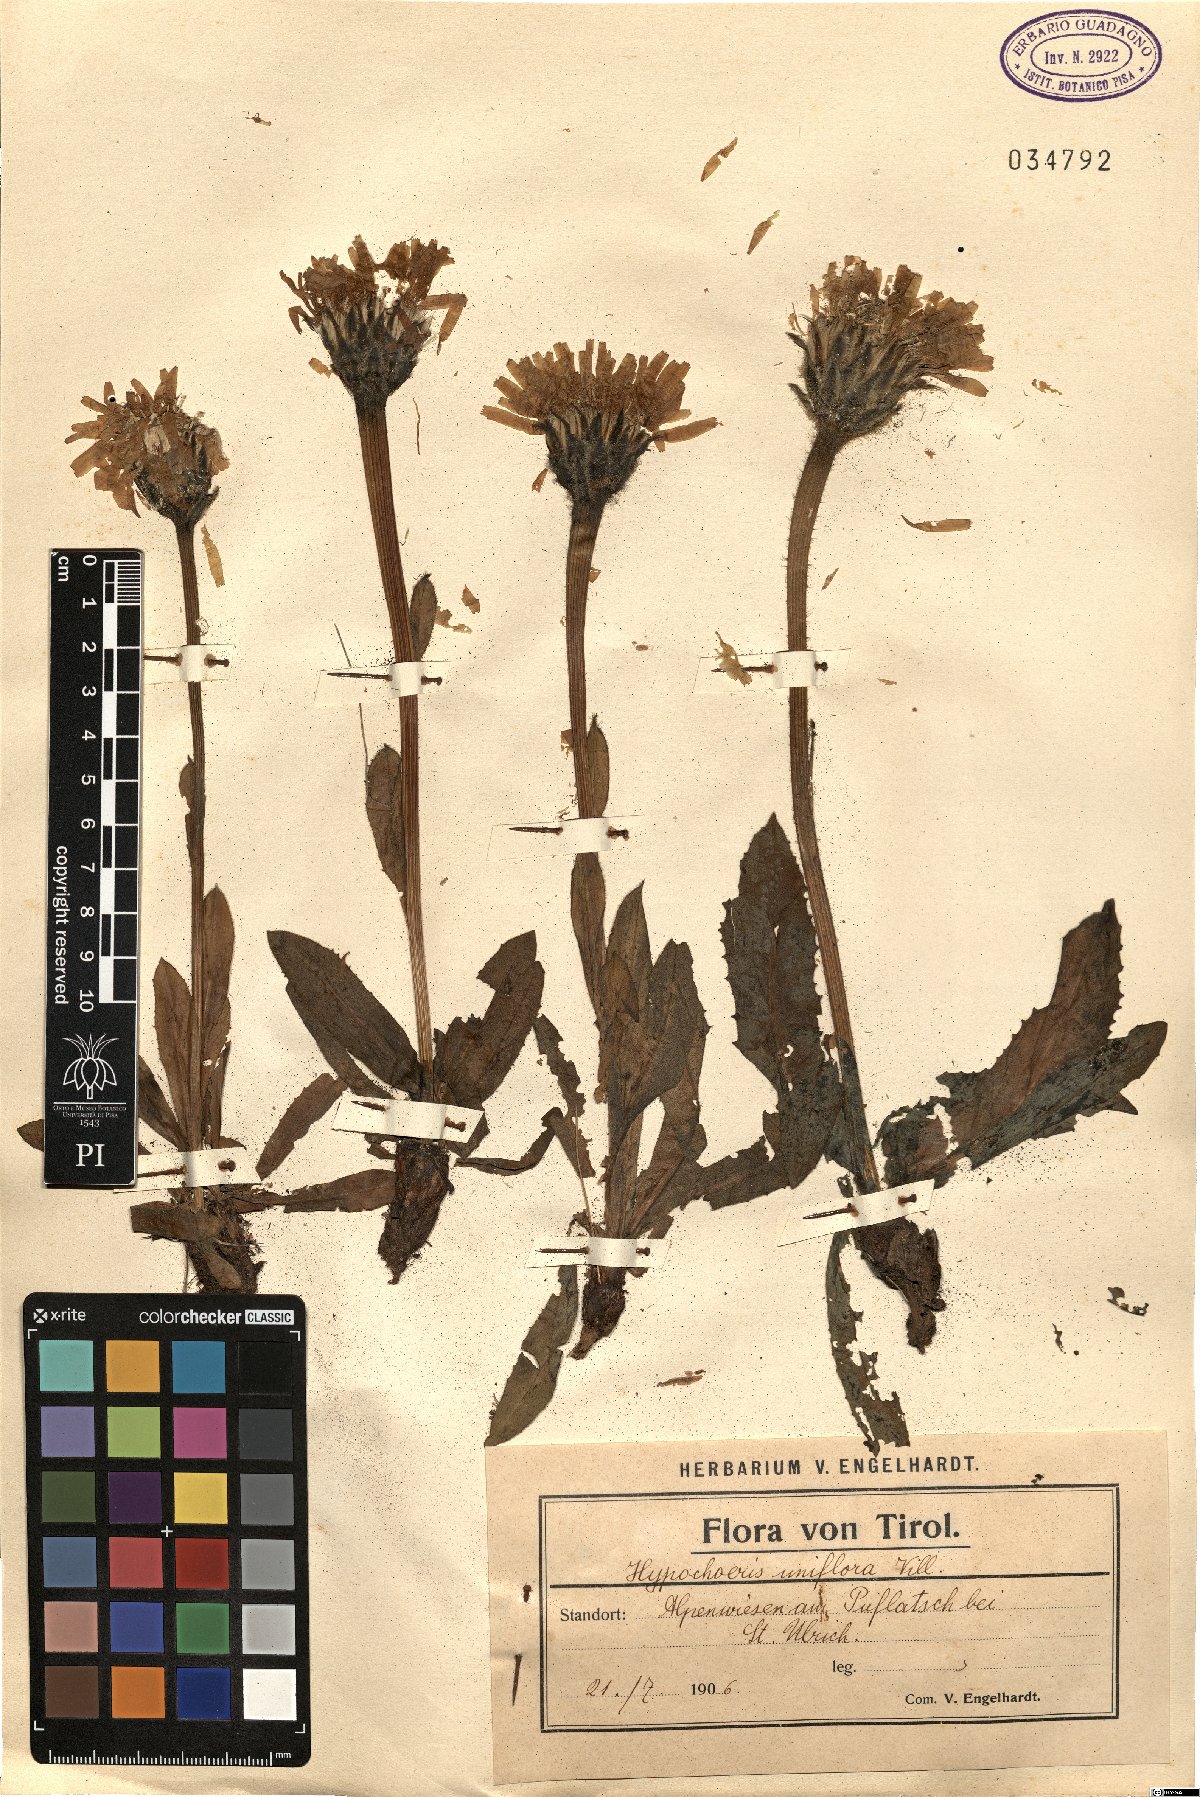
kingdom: Plantae
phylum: Tracheophyta
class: Magnoliopsida
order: Asterales
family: Asteraceae
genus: Trommsdorffia
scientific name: Trommsdorffia uniflora
